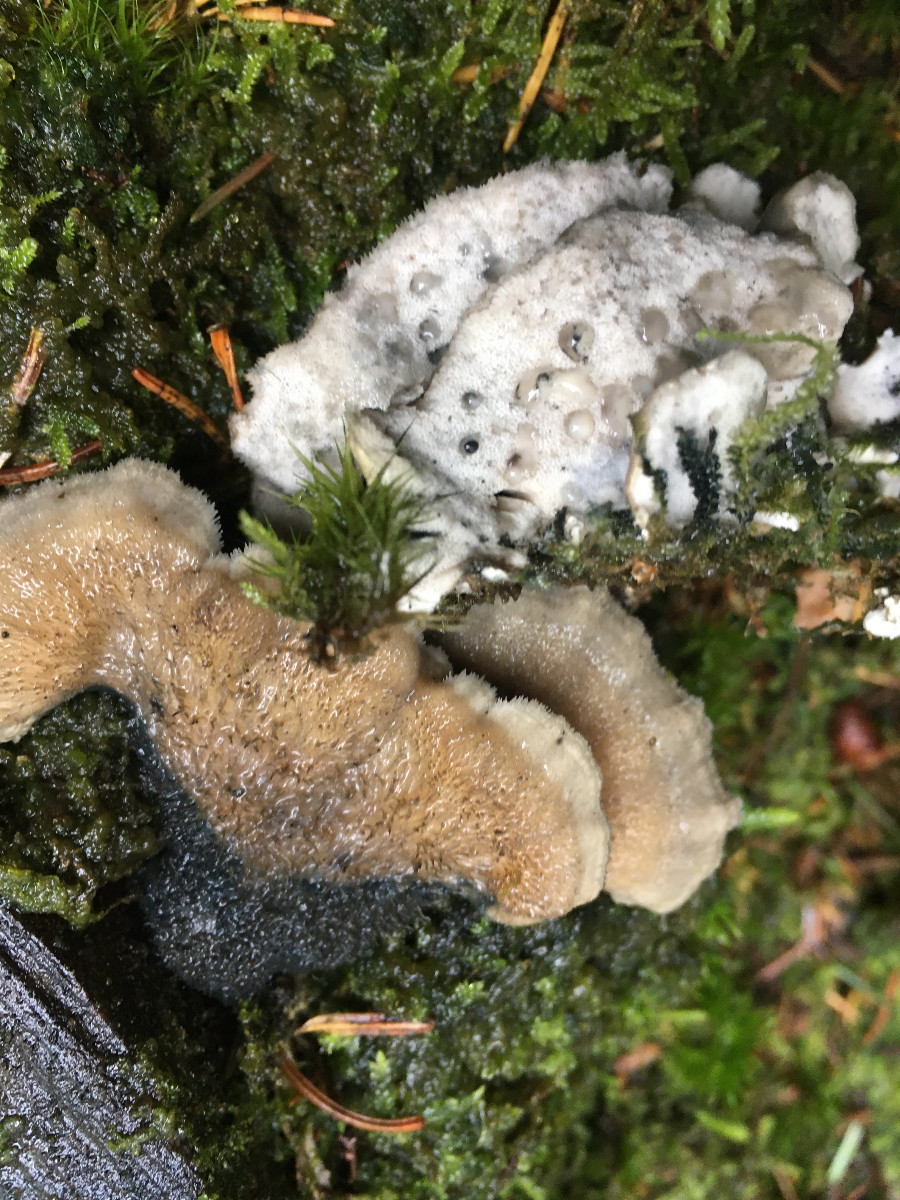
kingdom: Fungi
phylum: Basidiomycota
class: Agaricomycetes
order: Polyporales
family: Polyporaceae
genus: Cyanosporus
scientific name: Cyanosporus caesius
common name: blålig kødporesvamp
